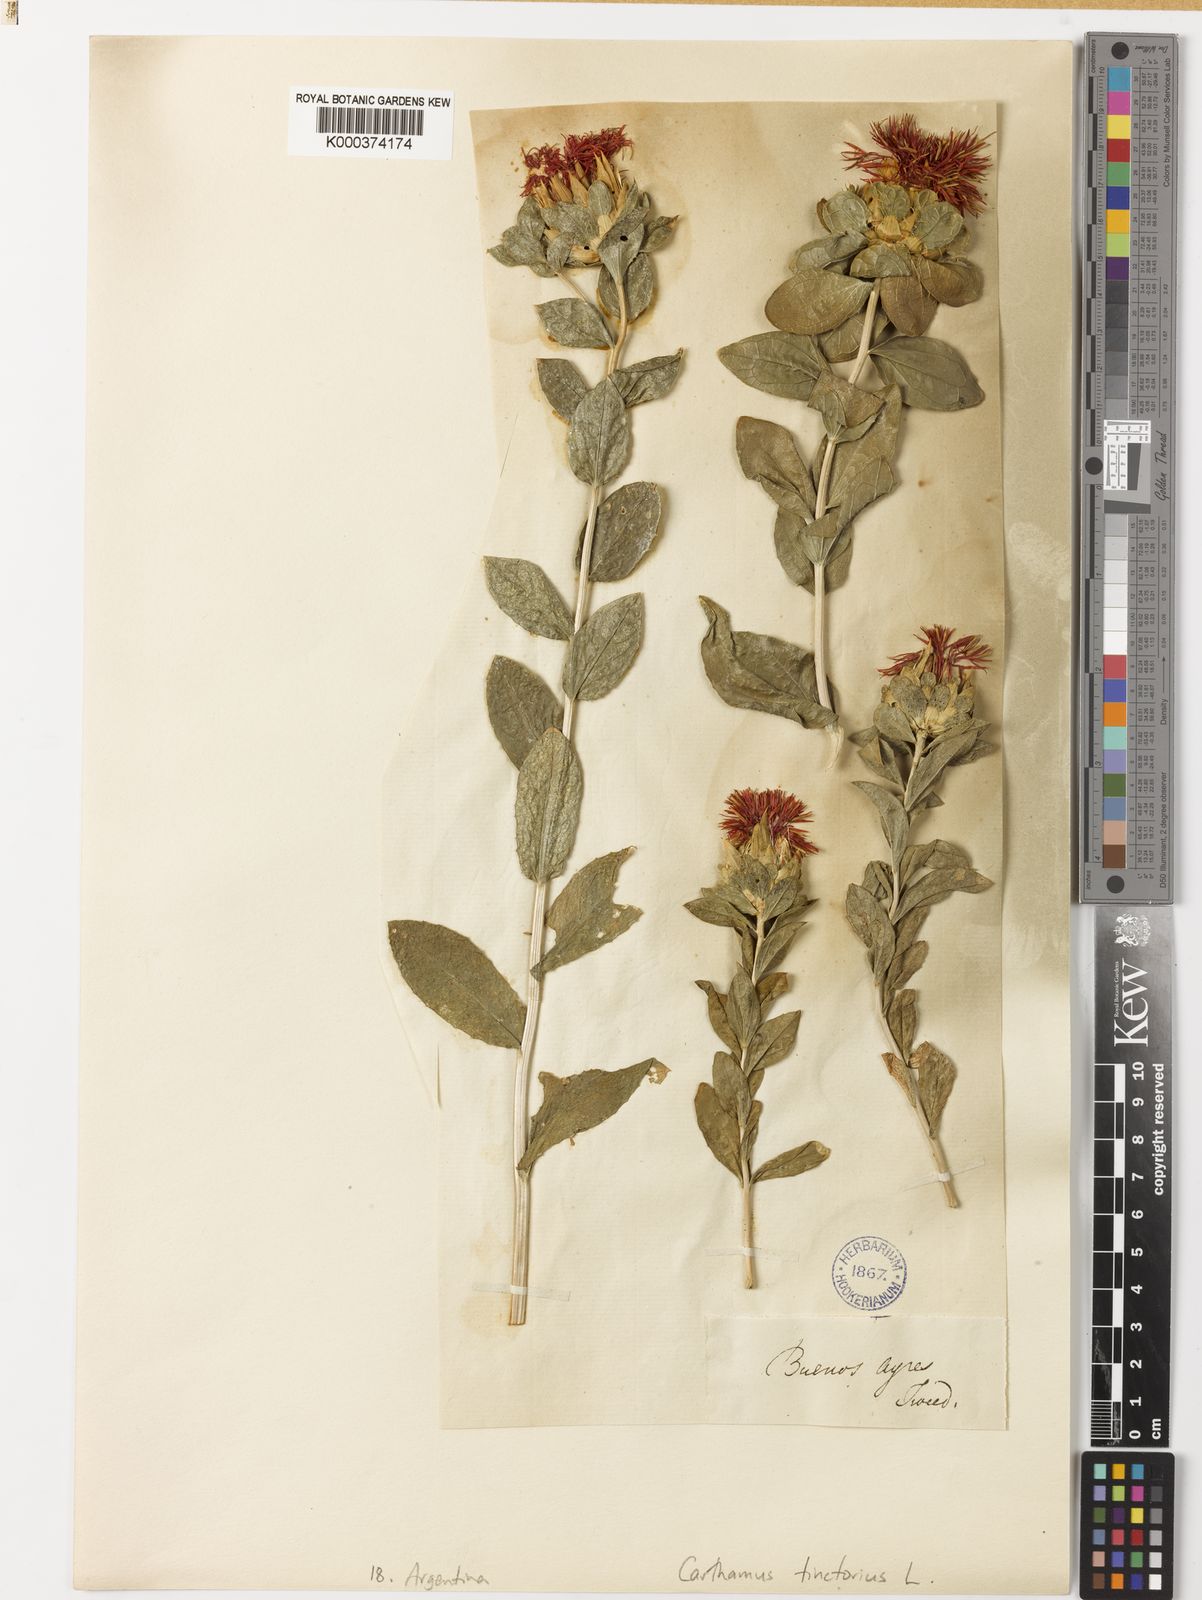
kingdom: Plantae
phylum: Tracheophyta
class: Magnoliopsida
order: Asterales
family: Asteraceae
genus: Carthamus
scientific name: Carthamus tinctorius
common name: Safflower
